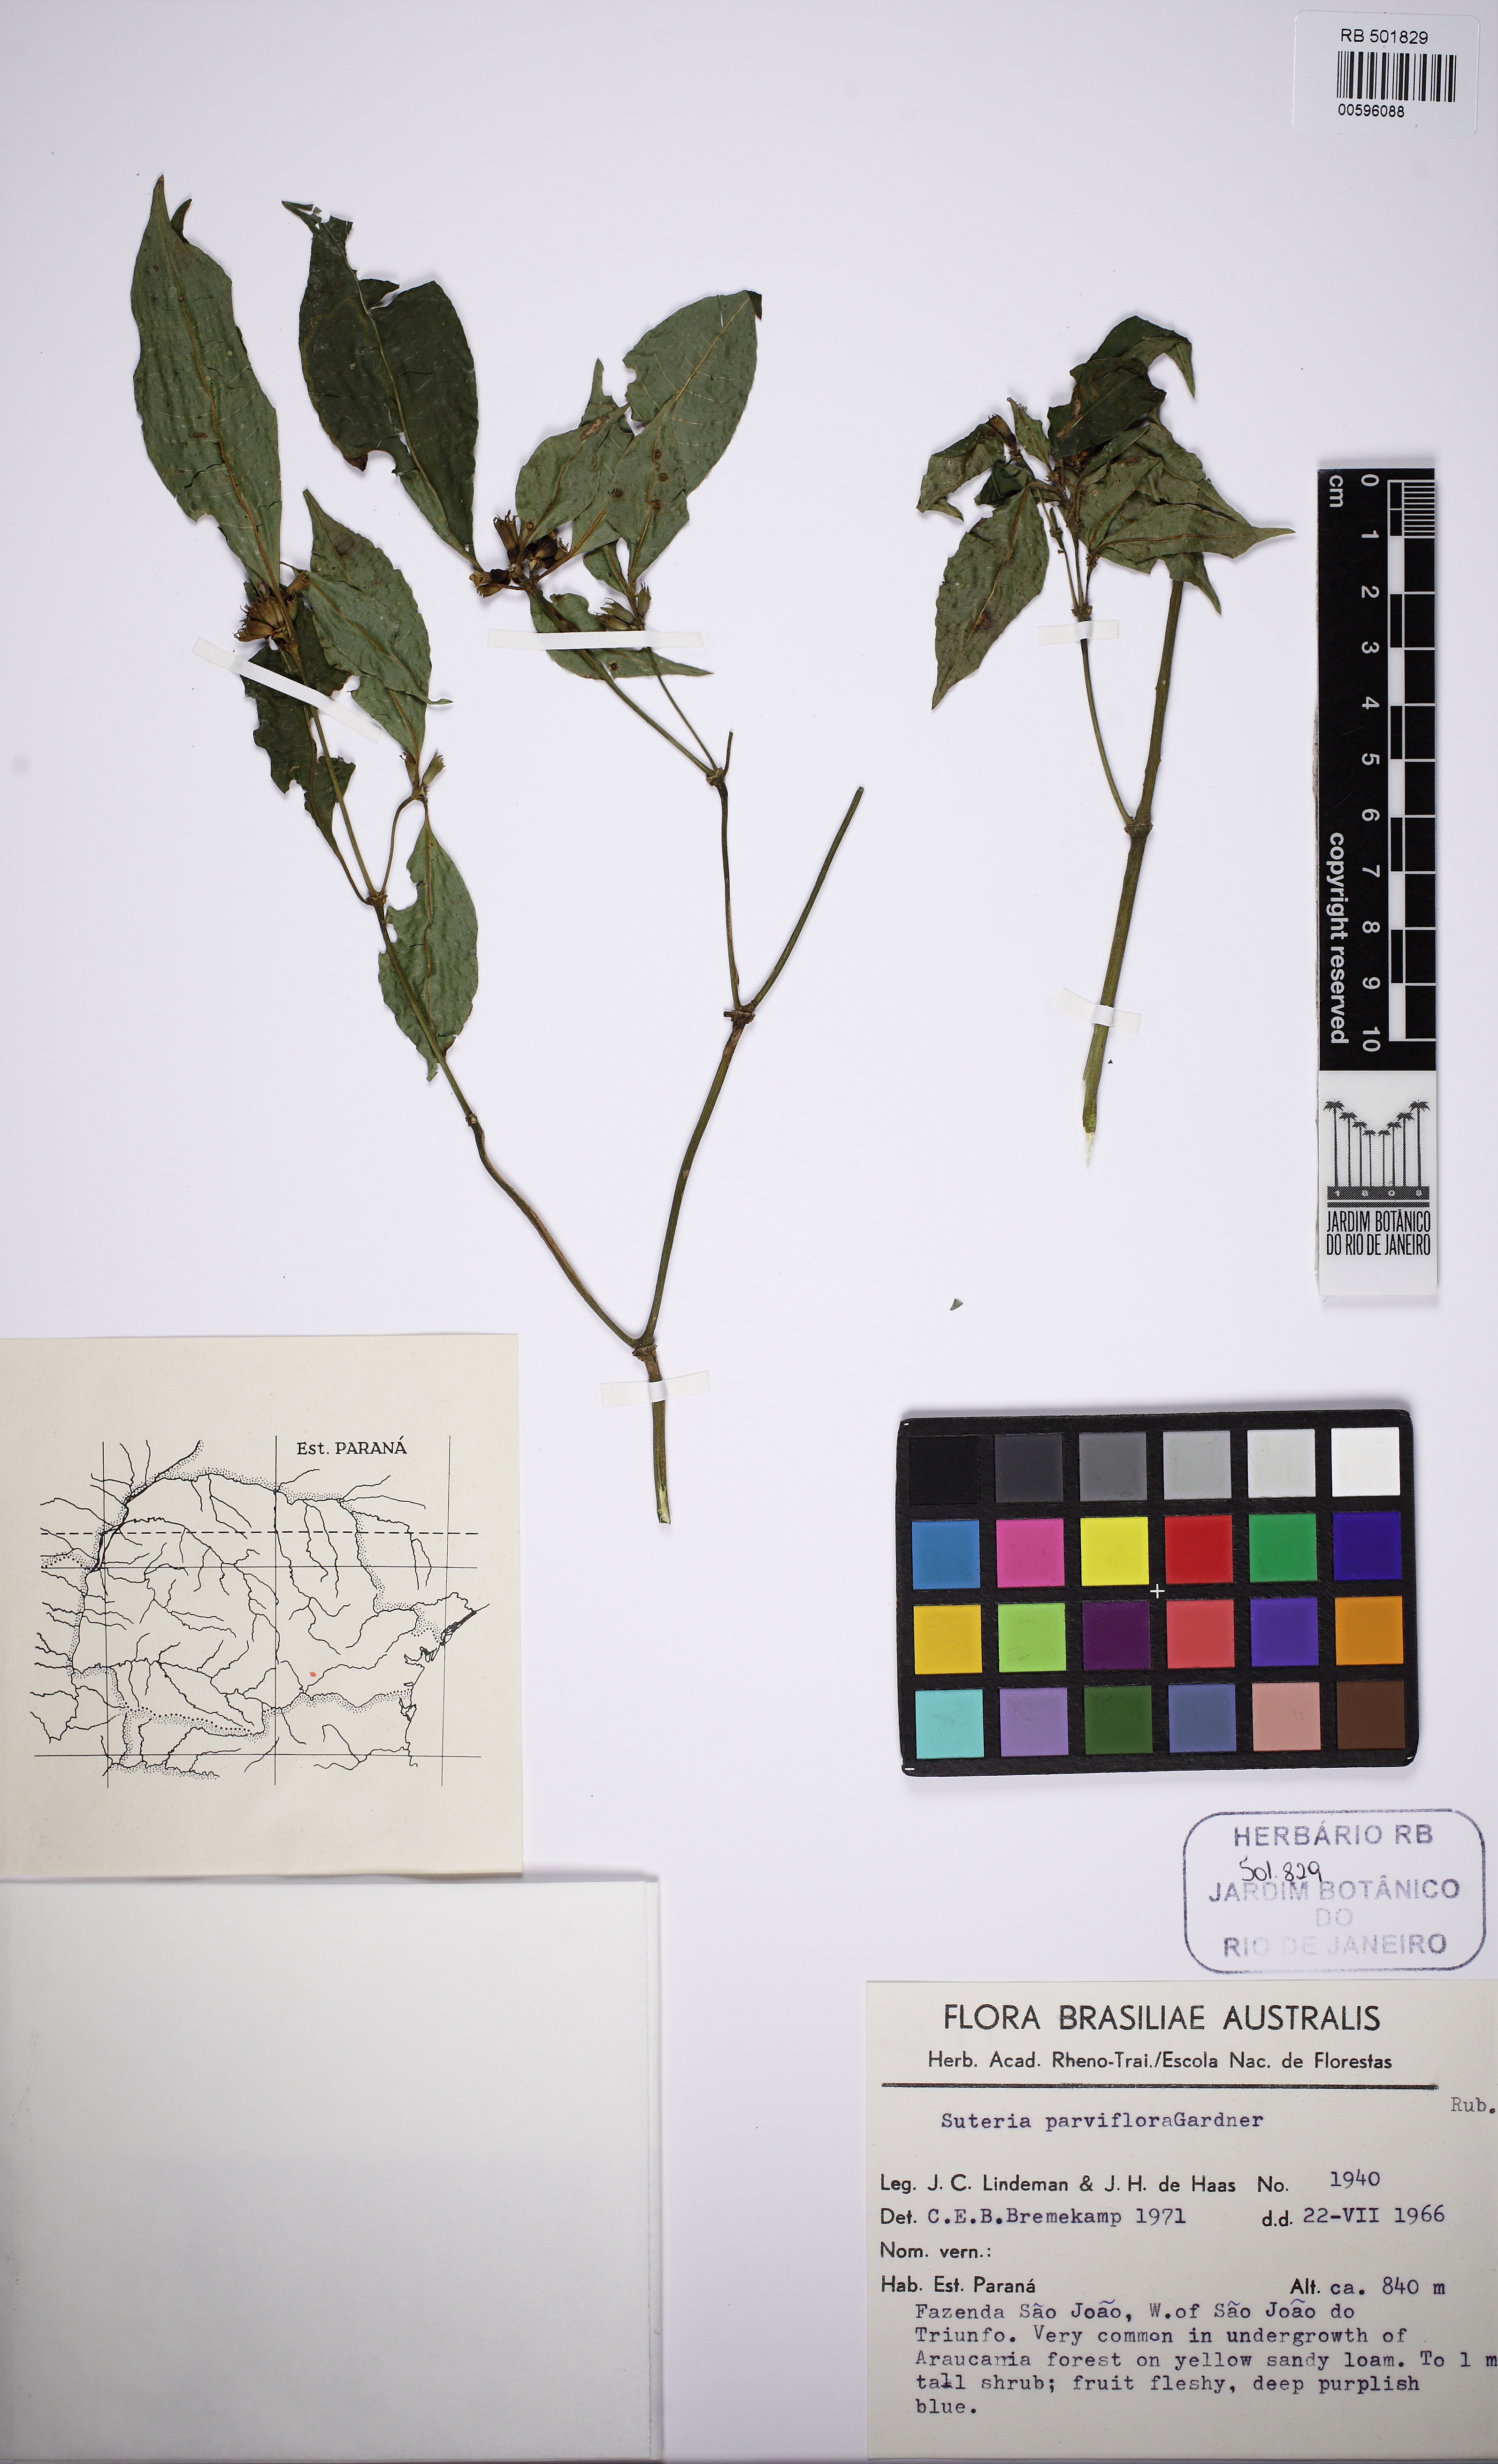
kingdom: Plantae
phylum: Tracheophyta
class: Magnoliopsida
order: Gentianales
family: Rubiaceae
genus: Psychotria
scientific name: Psychotria suterella
